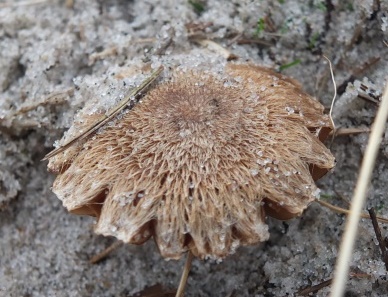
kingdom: Fungi
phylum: Basidiomycota
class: Agaricomycetes
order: Agaricales
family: Inocybaceae
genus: Inocybe
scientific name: Inocybe
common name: trævlhat
